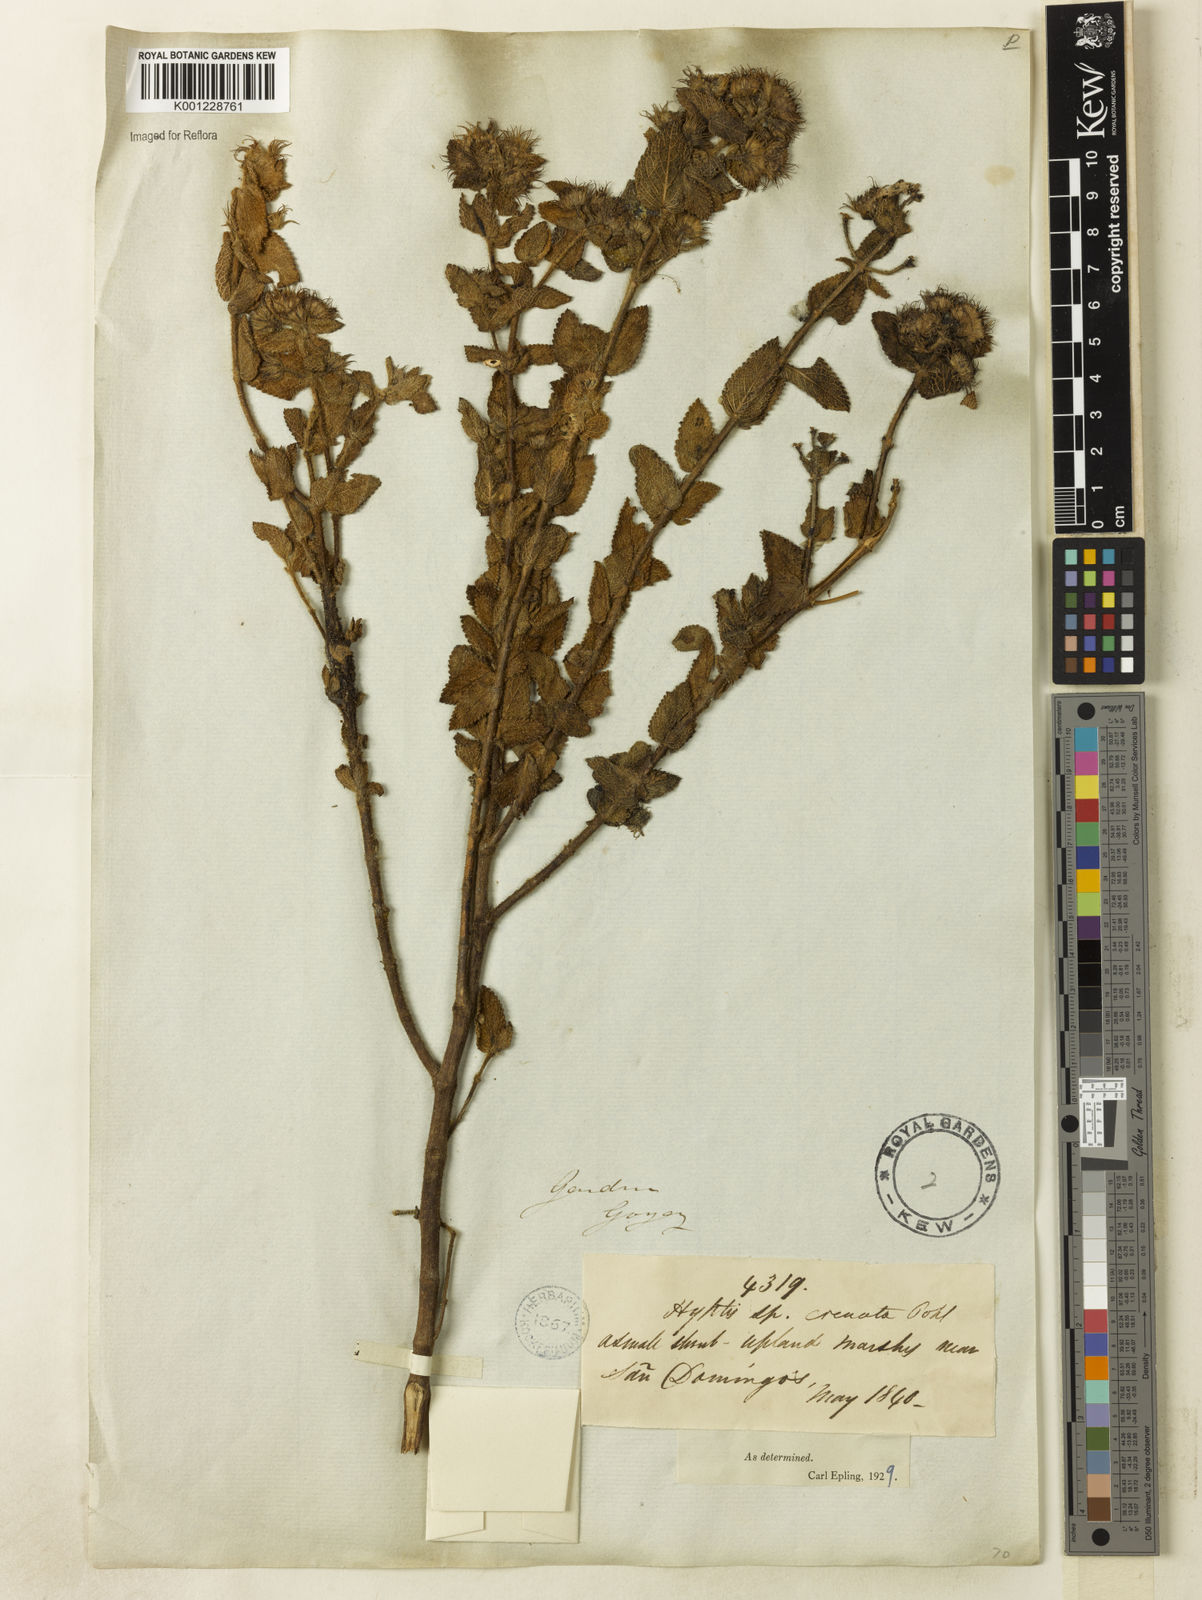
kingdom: Plantae
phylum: Tracheophyta
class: Magnoliopsida
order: Lamiales
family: Lamiaceae
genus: Hyptis
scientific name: Hyptis crenata
